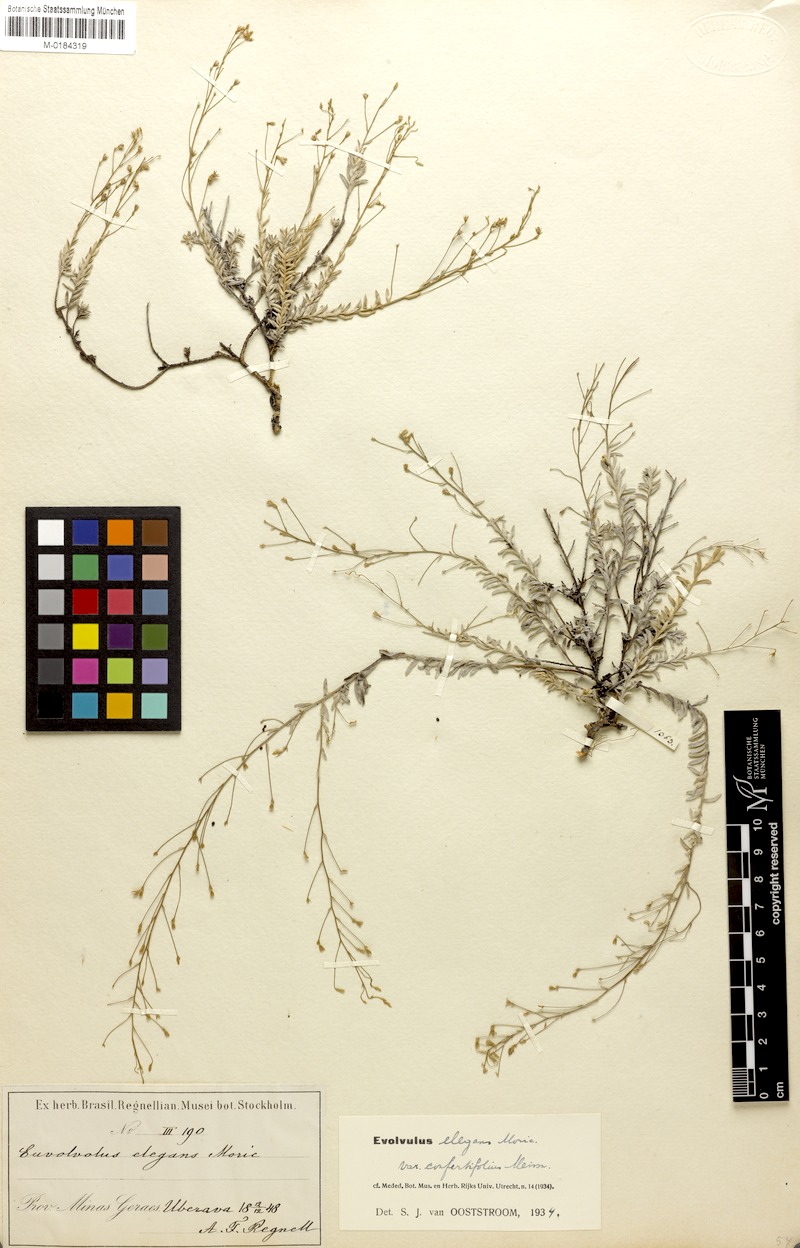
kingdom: Plantae
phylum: Tracheophyta
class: Magnoliopsida
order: Solanales
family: Convolvulaceae
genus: Evolvulus
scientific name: Evolvulus elegans
